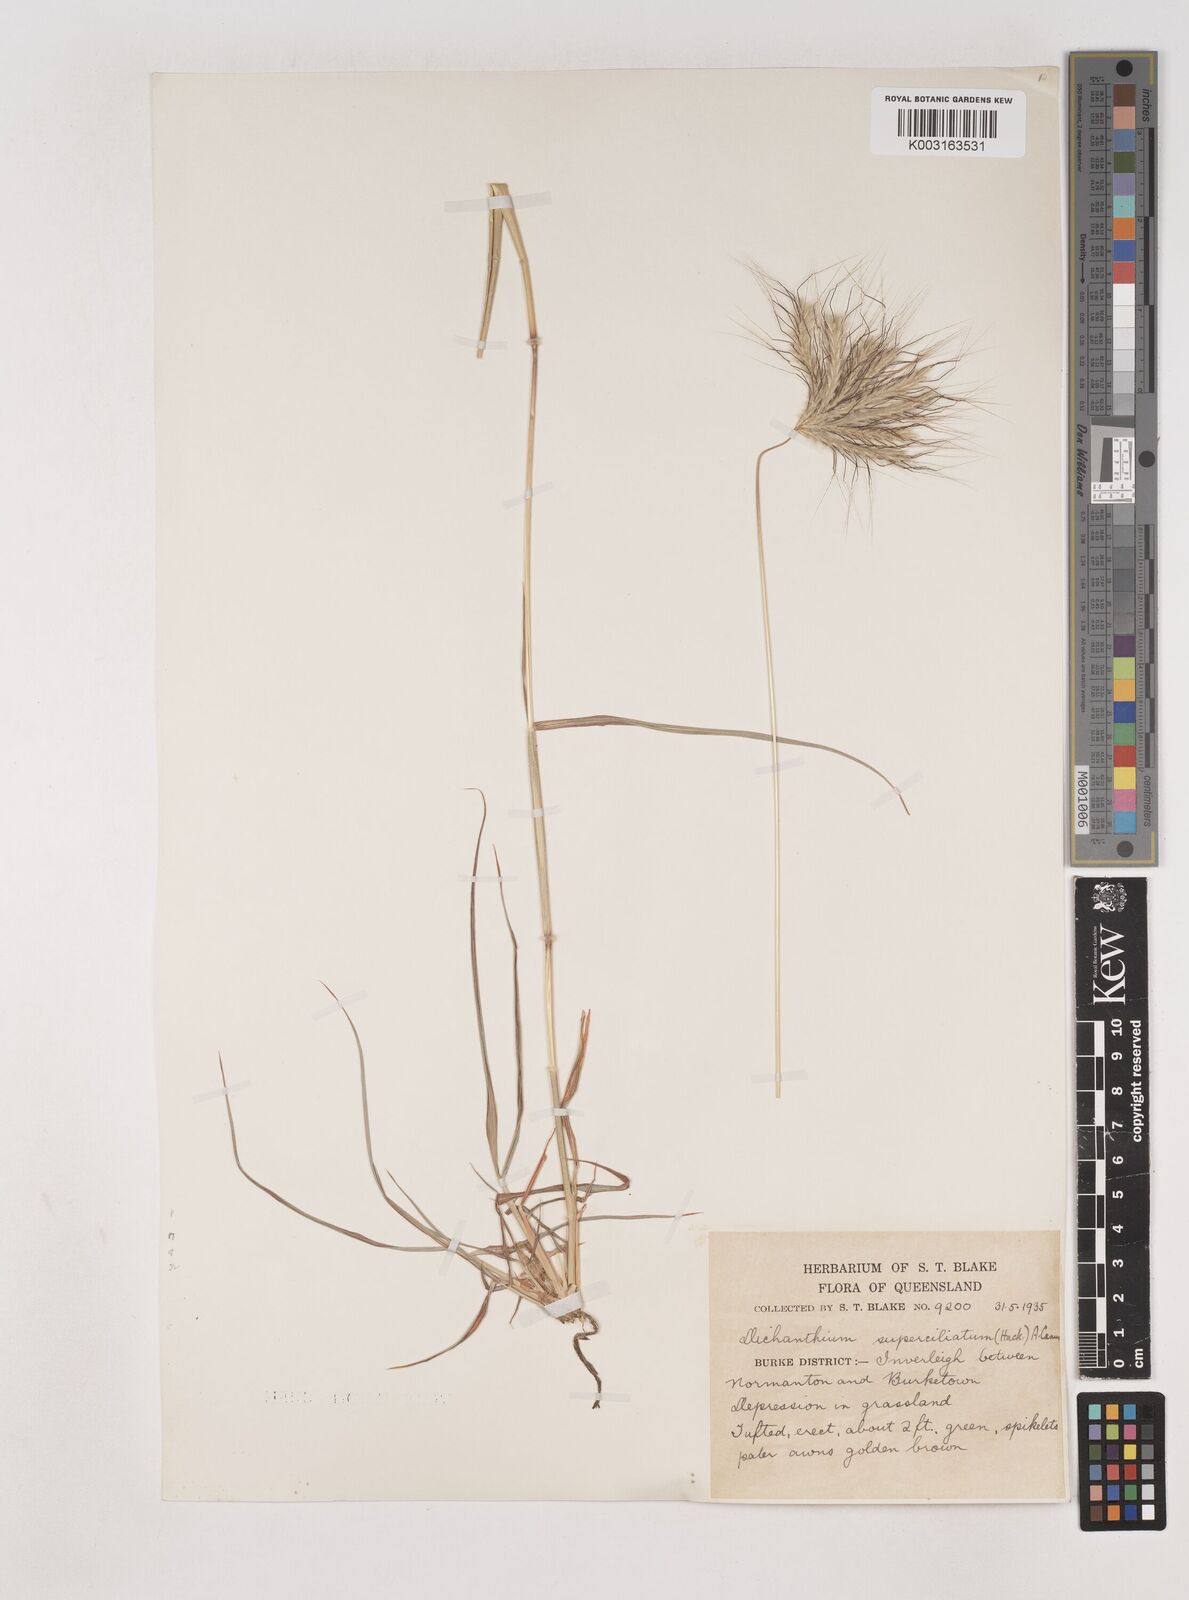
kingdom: Plantae
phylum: Tracheophyta
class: Liliopsida
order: Poales
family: Poaceae
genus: Dichanthium
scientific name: Dichanthium sericeum
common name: Silky bluestem
